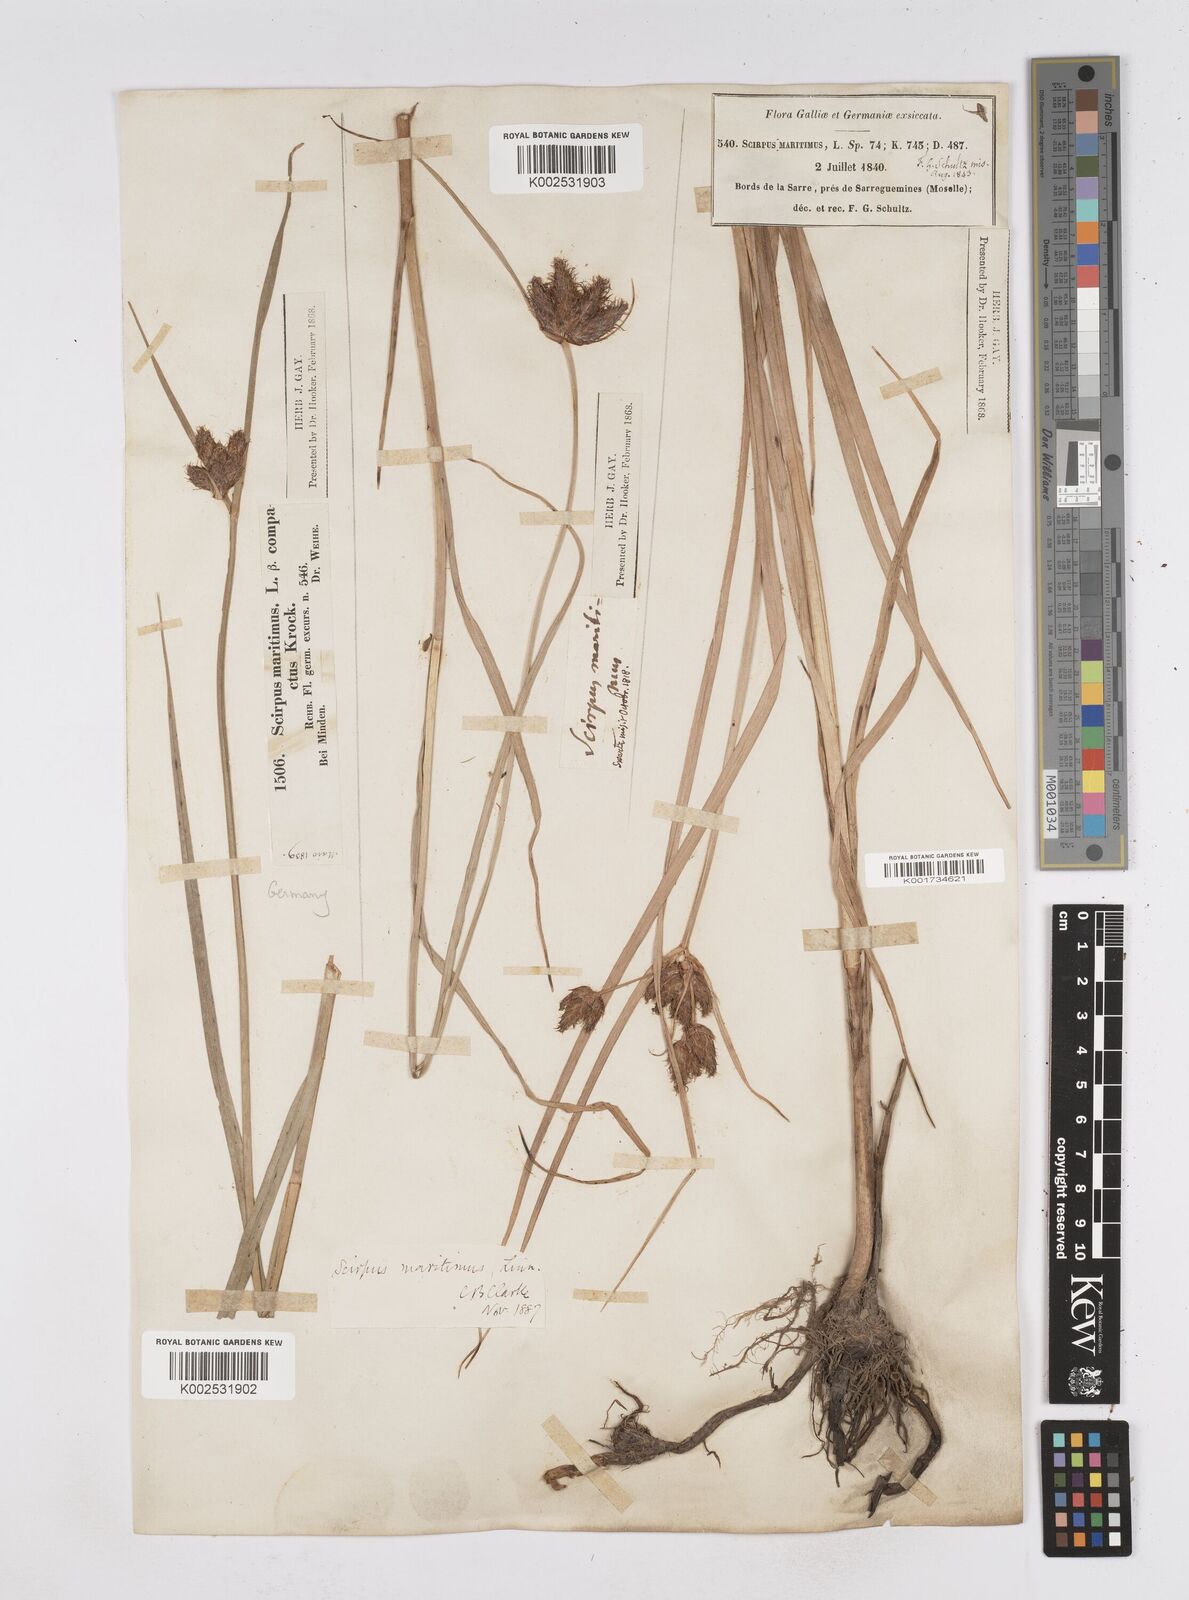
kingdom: Plantae
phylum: Tracheophyta
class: Liliopsida
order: Poales
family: Cyperaceae
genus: Bolboschoenus
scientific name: Bolboschoenus maritimus
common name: Sea club-rush
